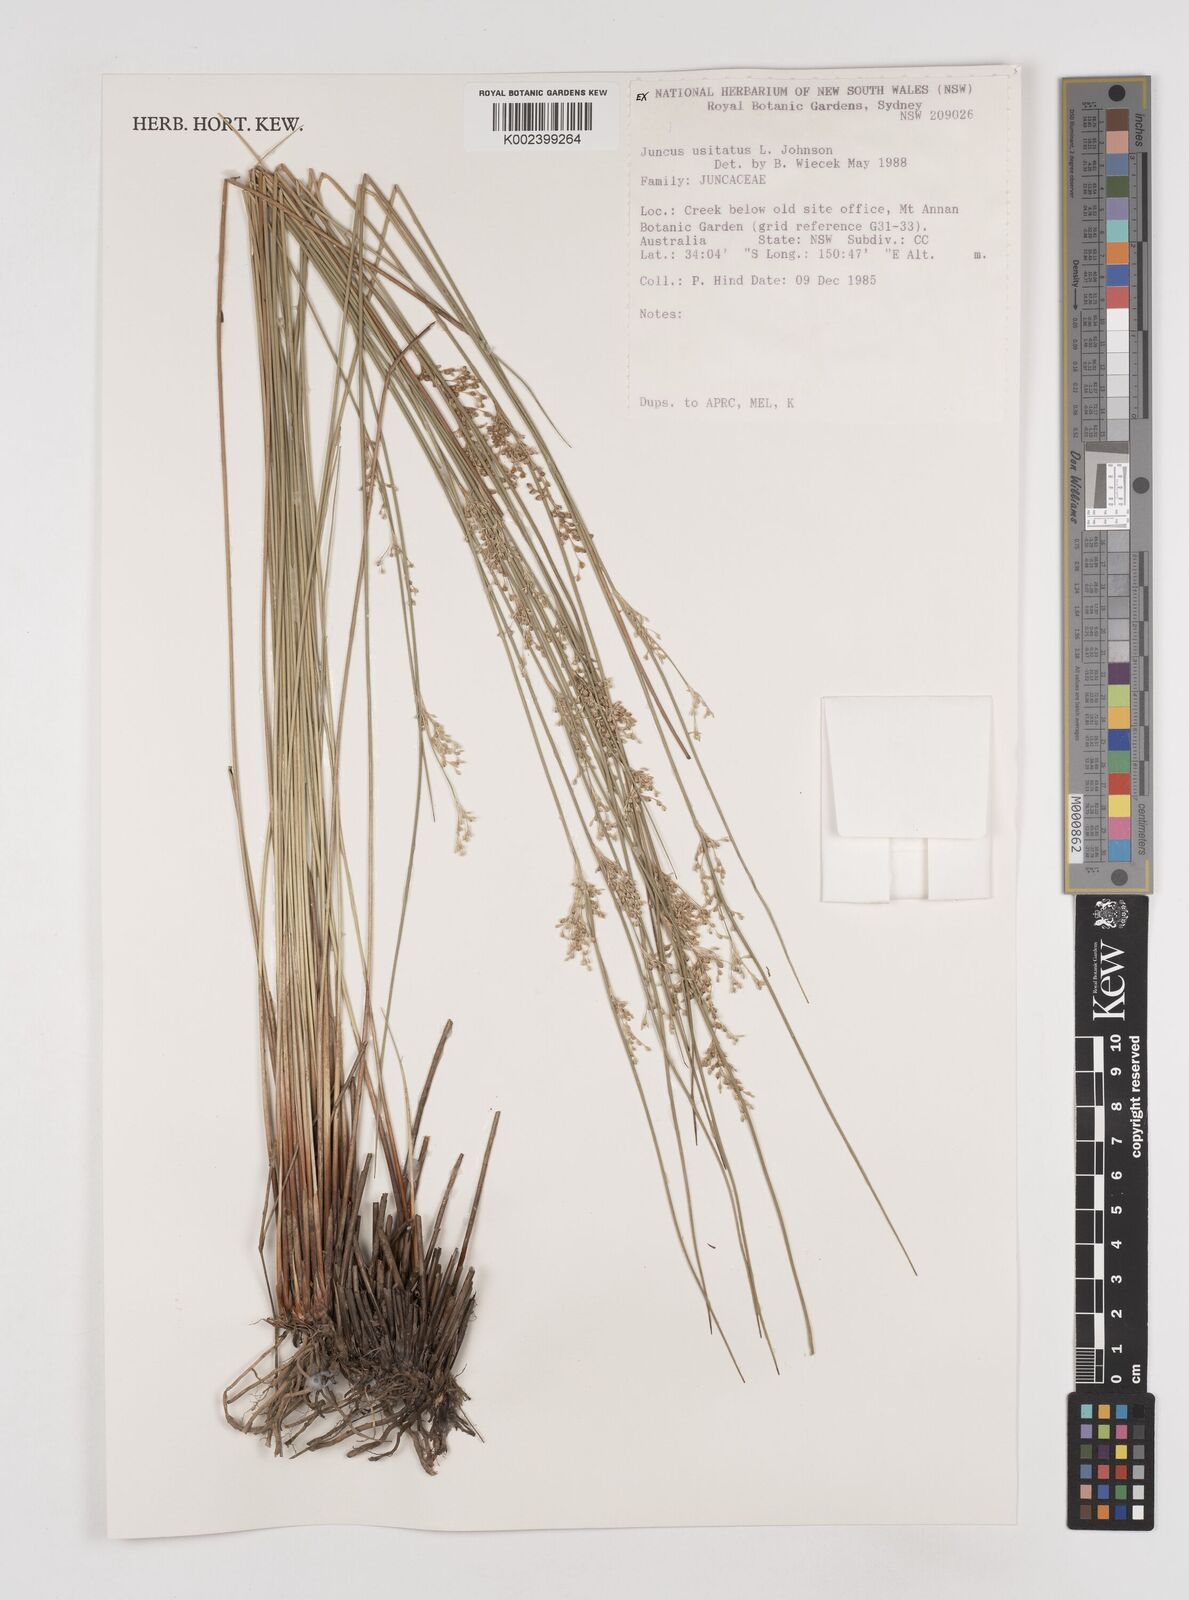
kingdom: Plantae
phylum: Tracheophyta
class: Liliopsida
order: Poales
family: Juncaceae
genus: Juncus
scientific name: Juncus usitatus
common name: Rush
